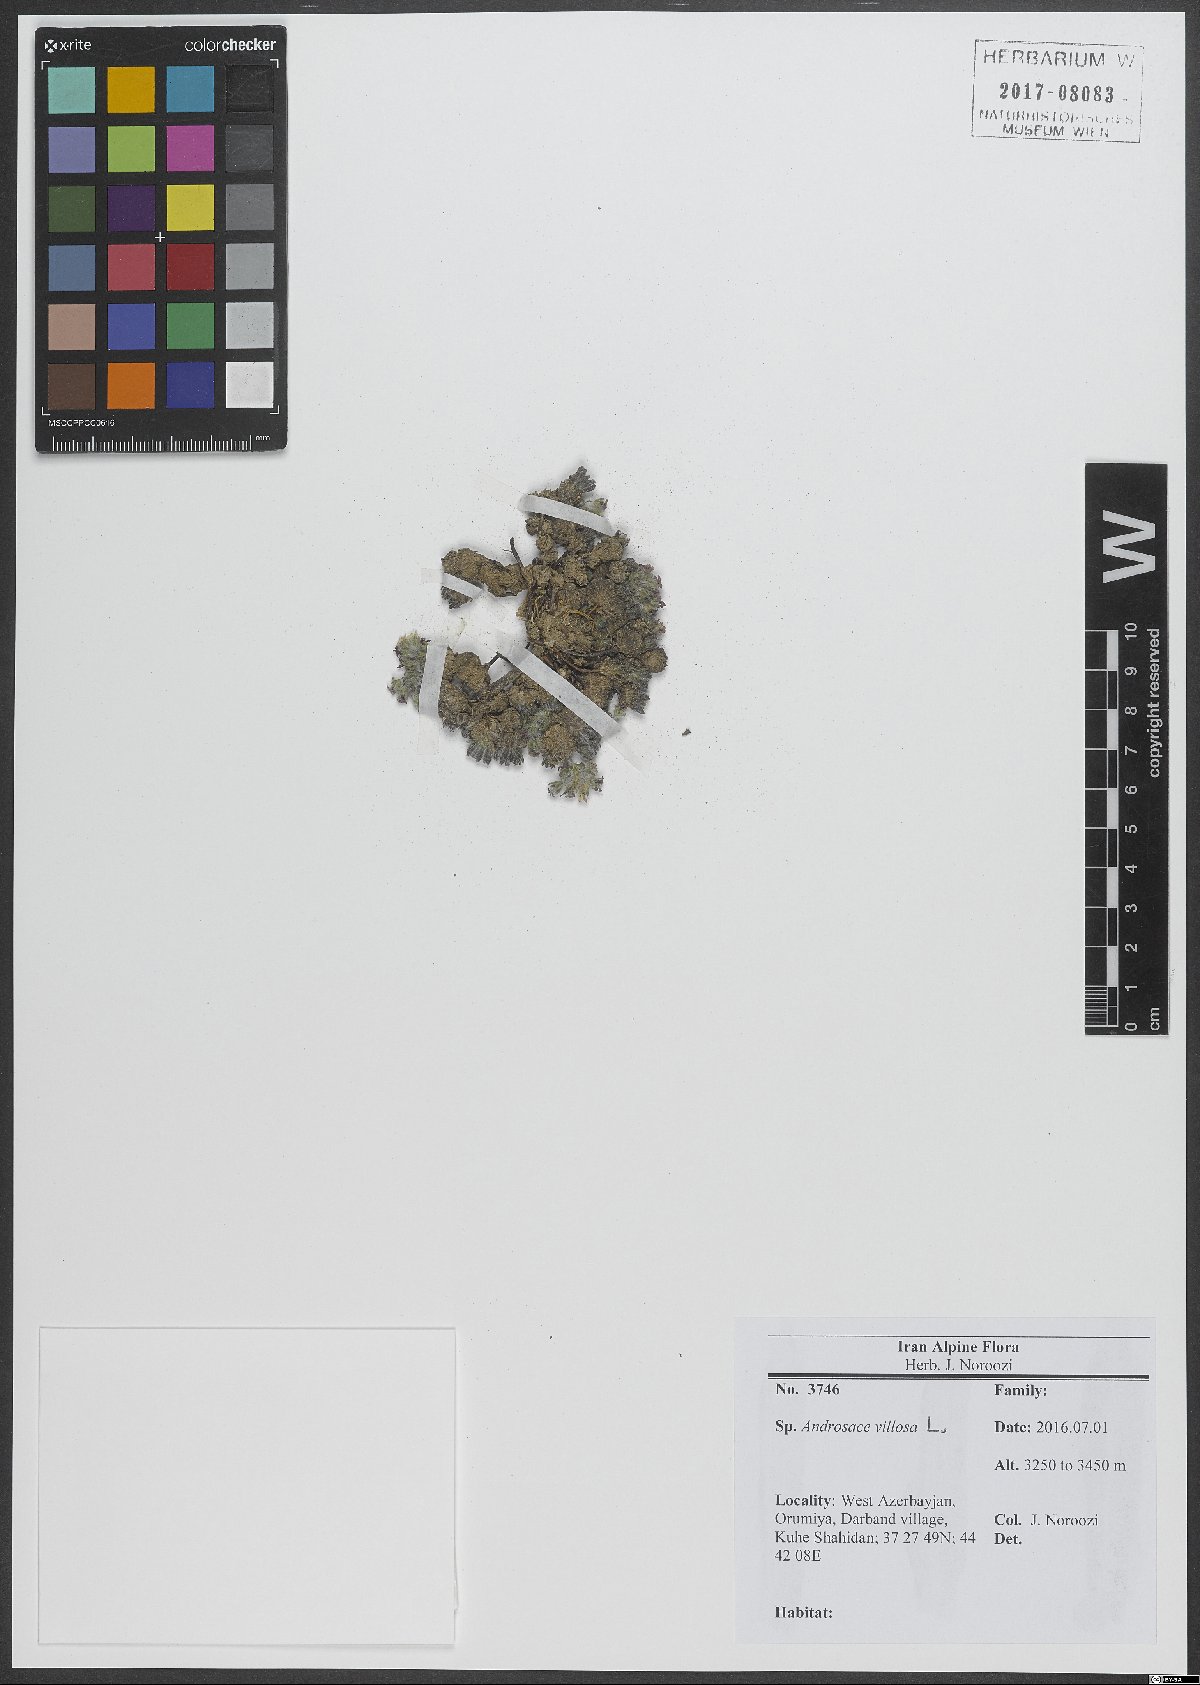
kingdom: Plantae
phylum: Tracheophyta
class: Magnoliopsida
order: Ericales
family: Primulaceae
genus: Androsace
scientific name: Androsace villosa
